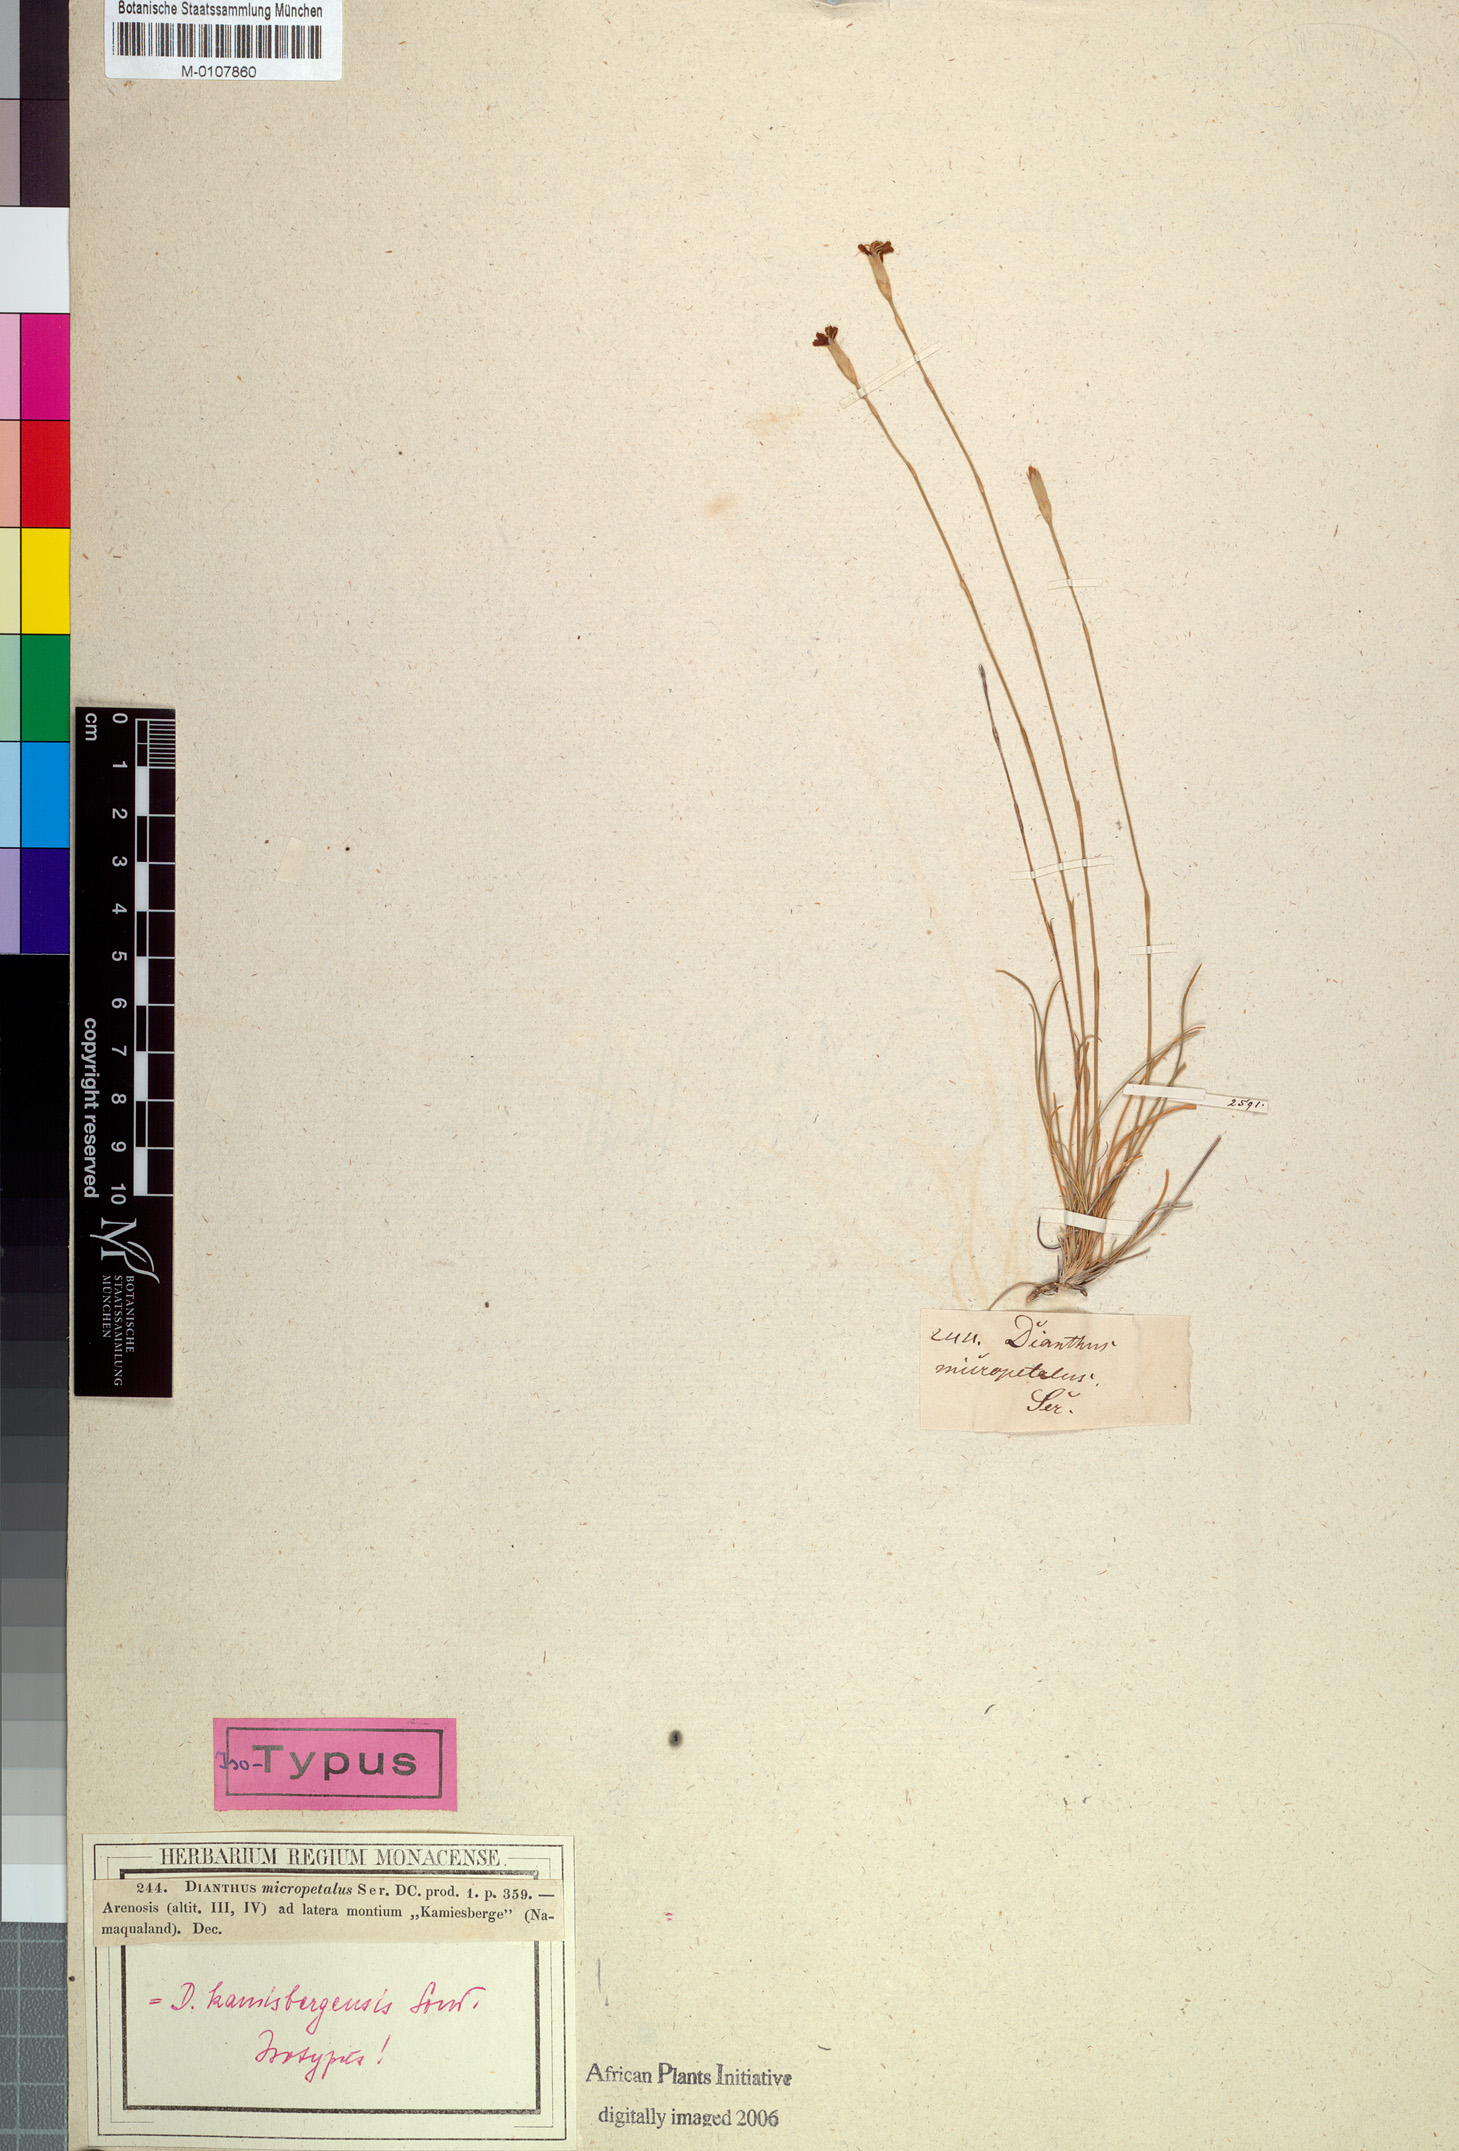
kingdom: Plantae
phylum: Tracheophyta
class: Magnoliopsida
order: Caryophyllales
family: Caryophyllaceae
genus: Dianthus
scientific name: Dianthus kamisbergensis
